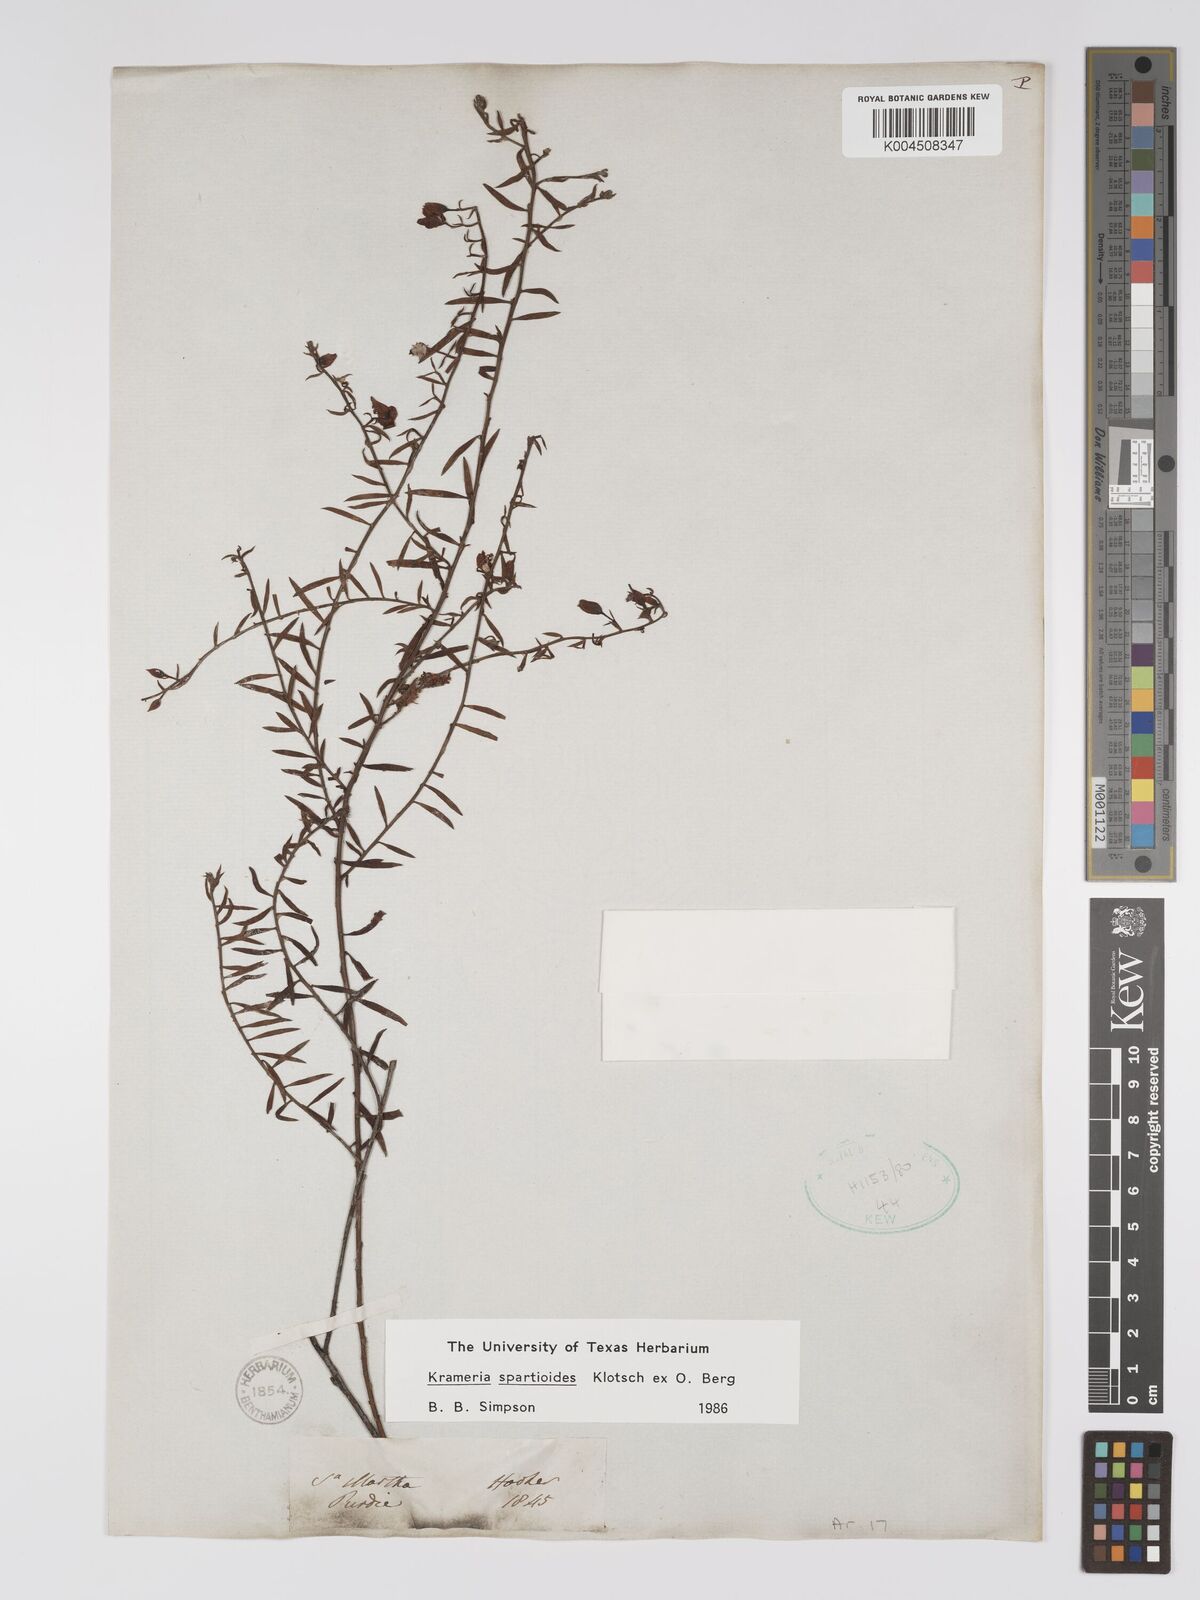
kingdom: Plantae
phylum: Tracheophyta
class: Magnoliopsida
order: Zygophyllales
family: Krameriaceae
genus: Krameria
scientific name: Krameria spartioides
